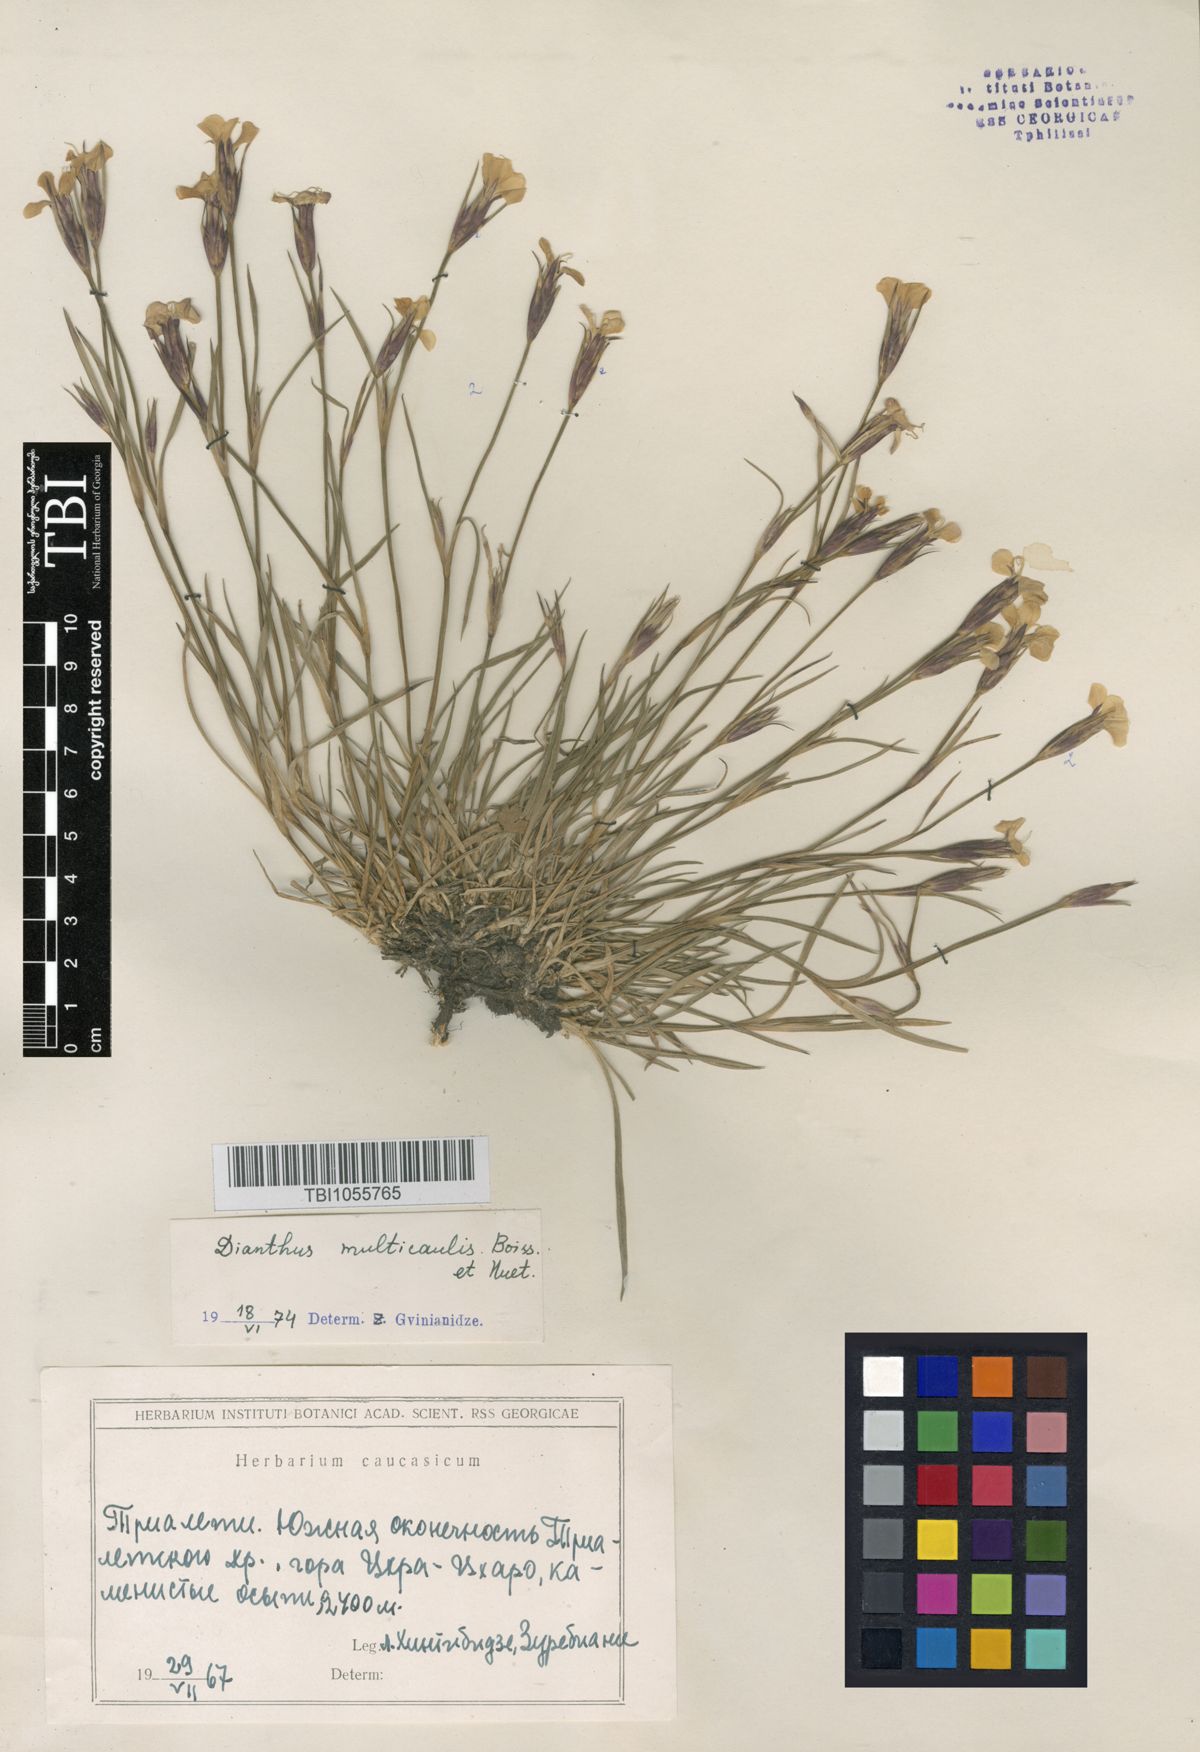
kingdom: Plantae
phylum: Tracheophyta
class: Magnoliopsida
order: Caryophyllales
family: Caryophyllaceae
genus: Dianthus
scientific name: Dianthus cretaceus
